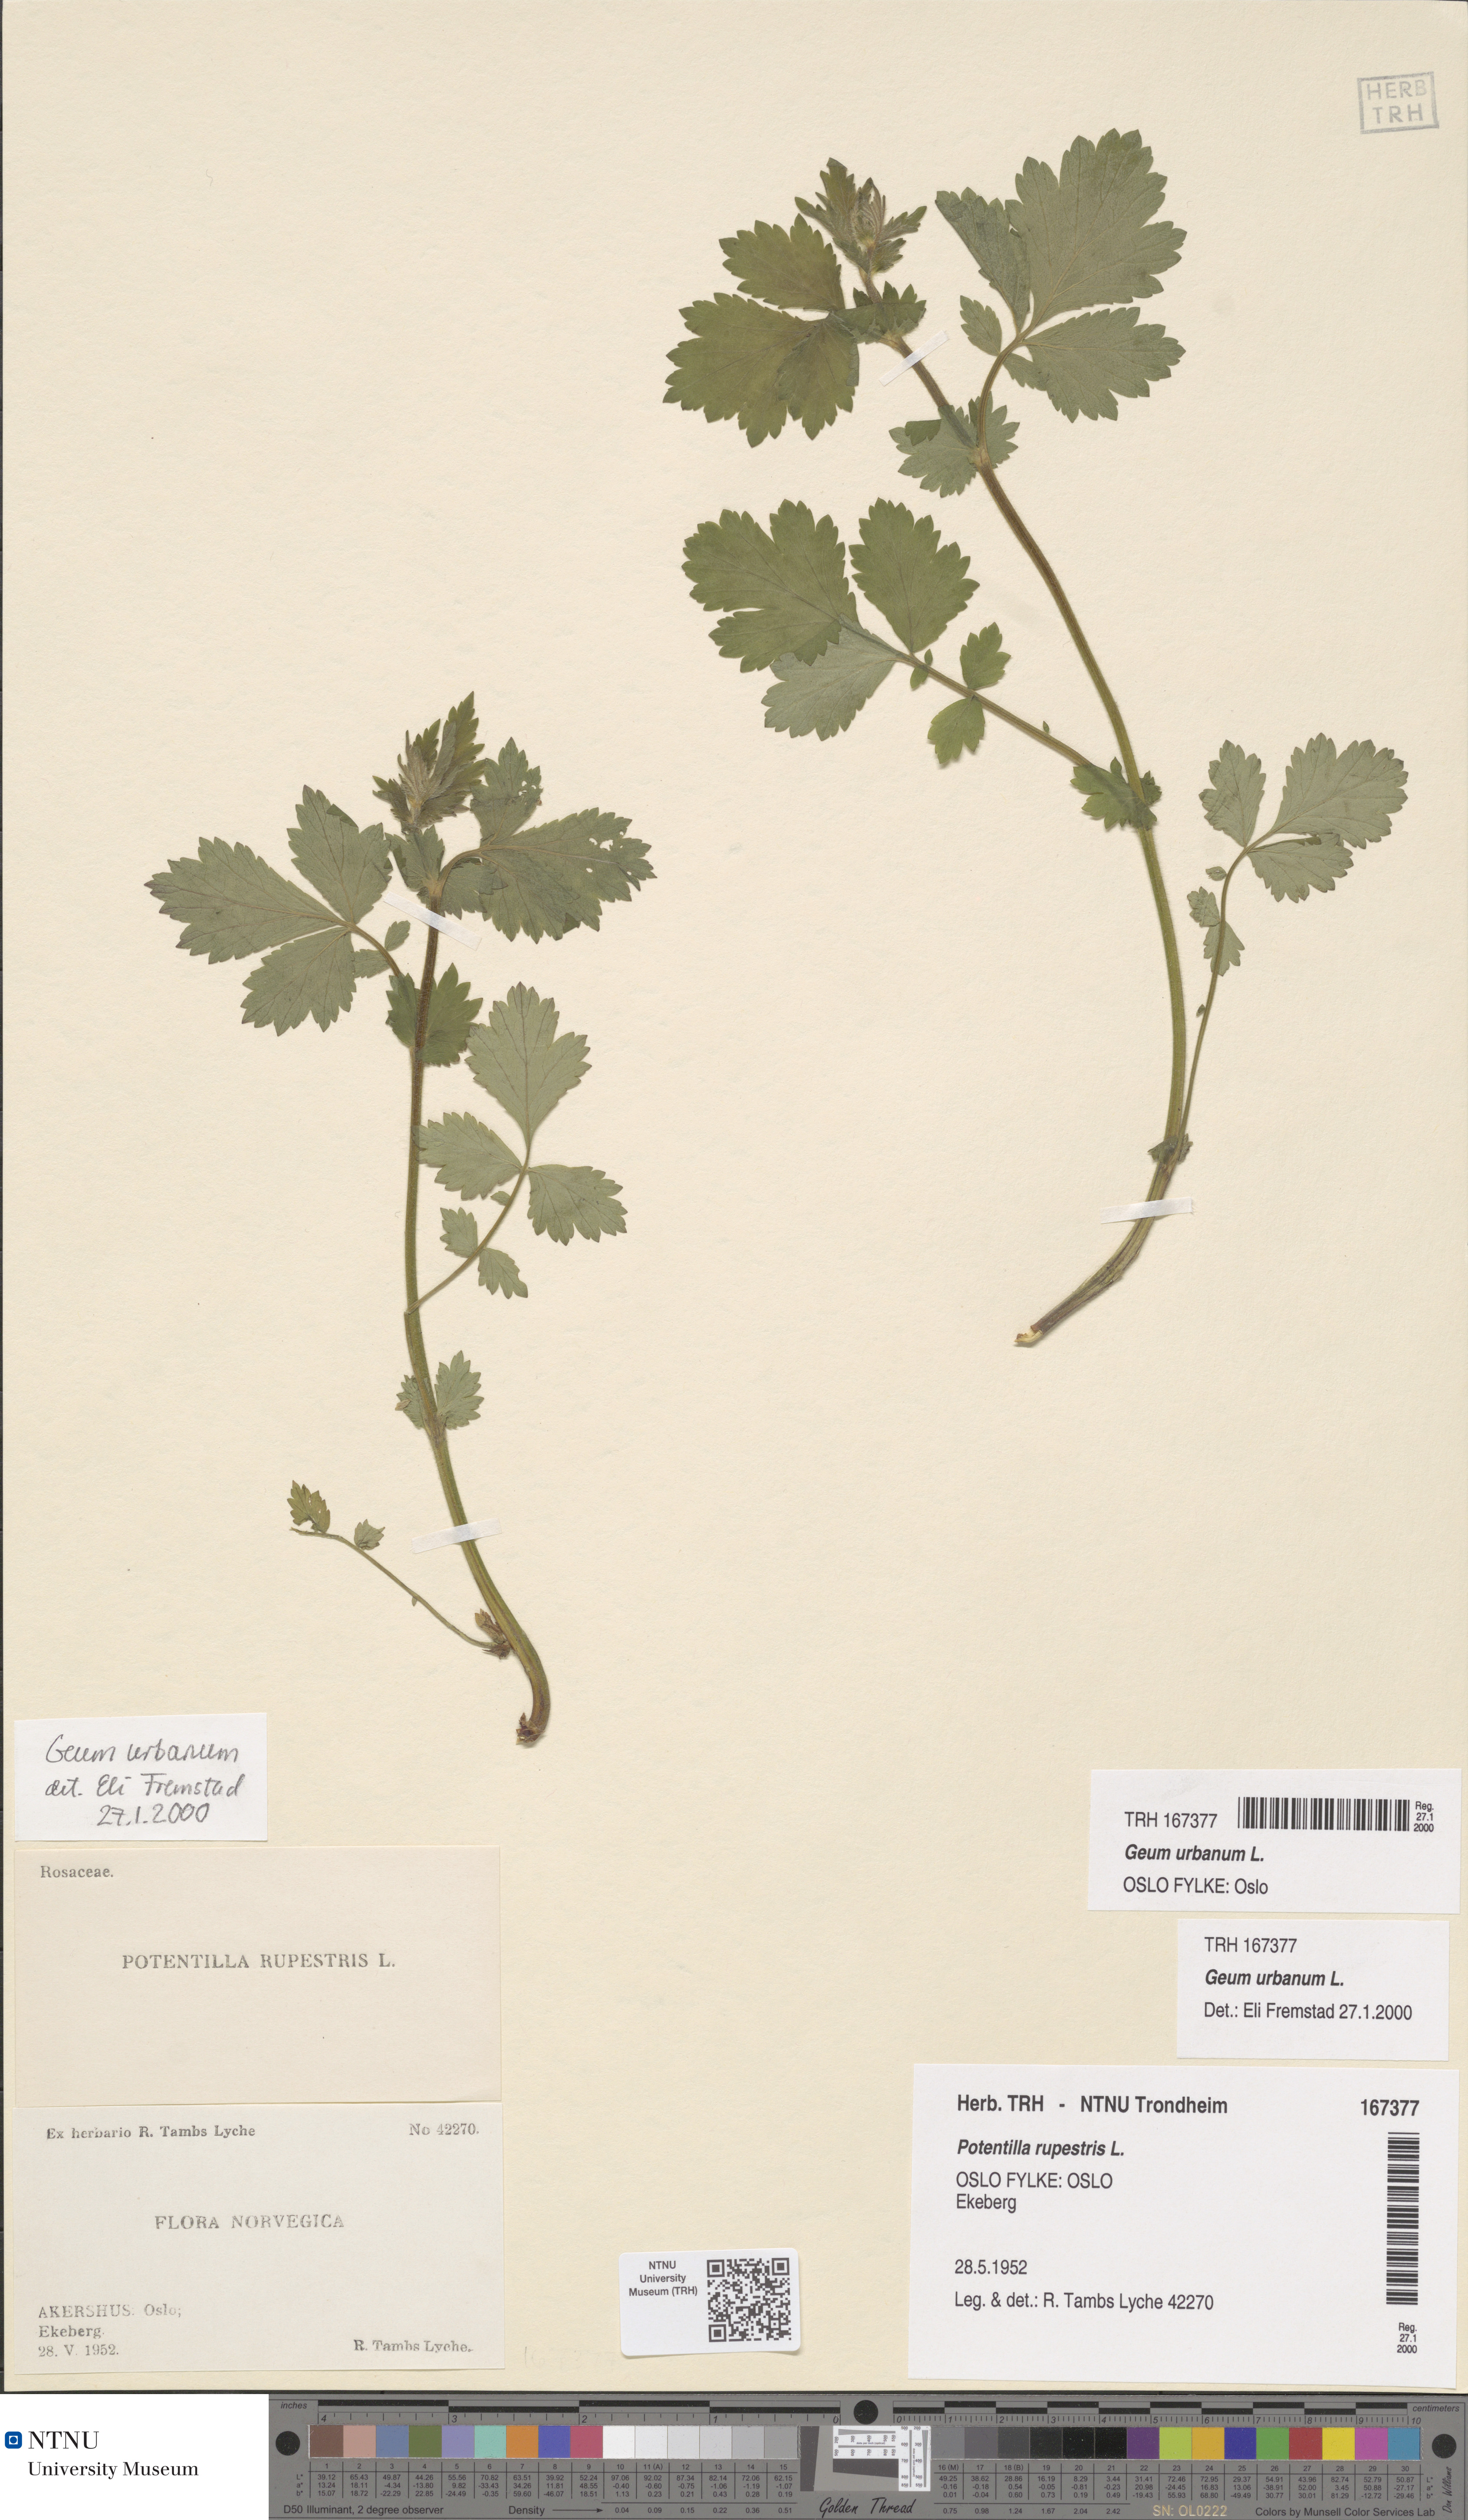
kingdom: Plantae
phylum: Tracheophyta
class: Magnoliopsida
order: Rosales
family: Rosaceae
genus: Geum
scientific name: Geum urbanum
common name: Wood avens
